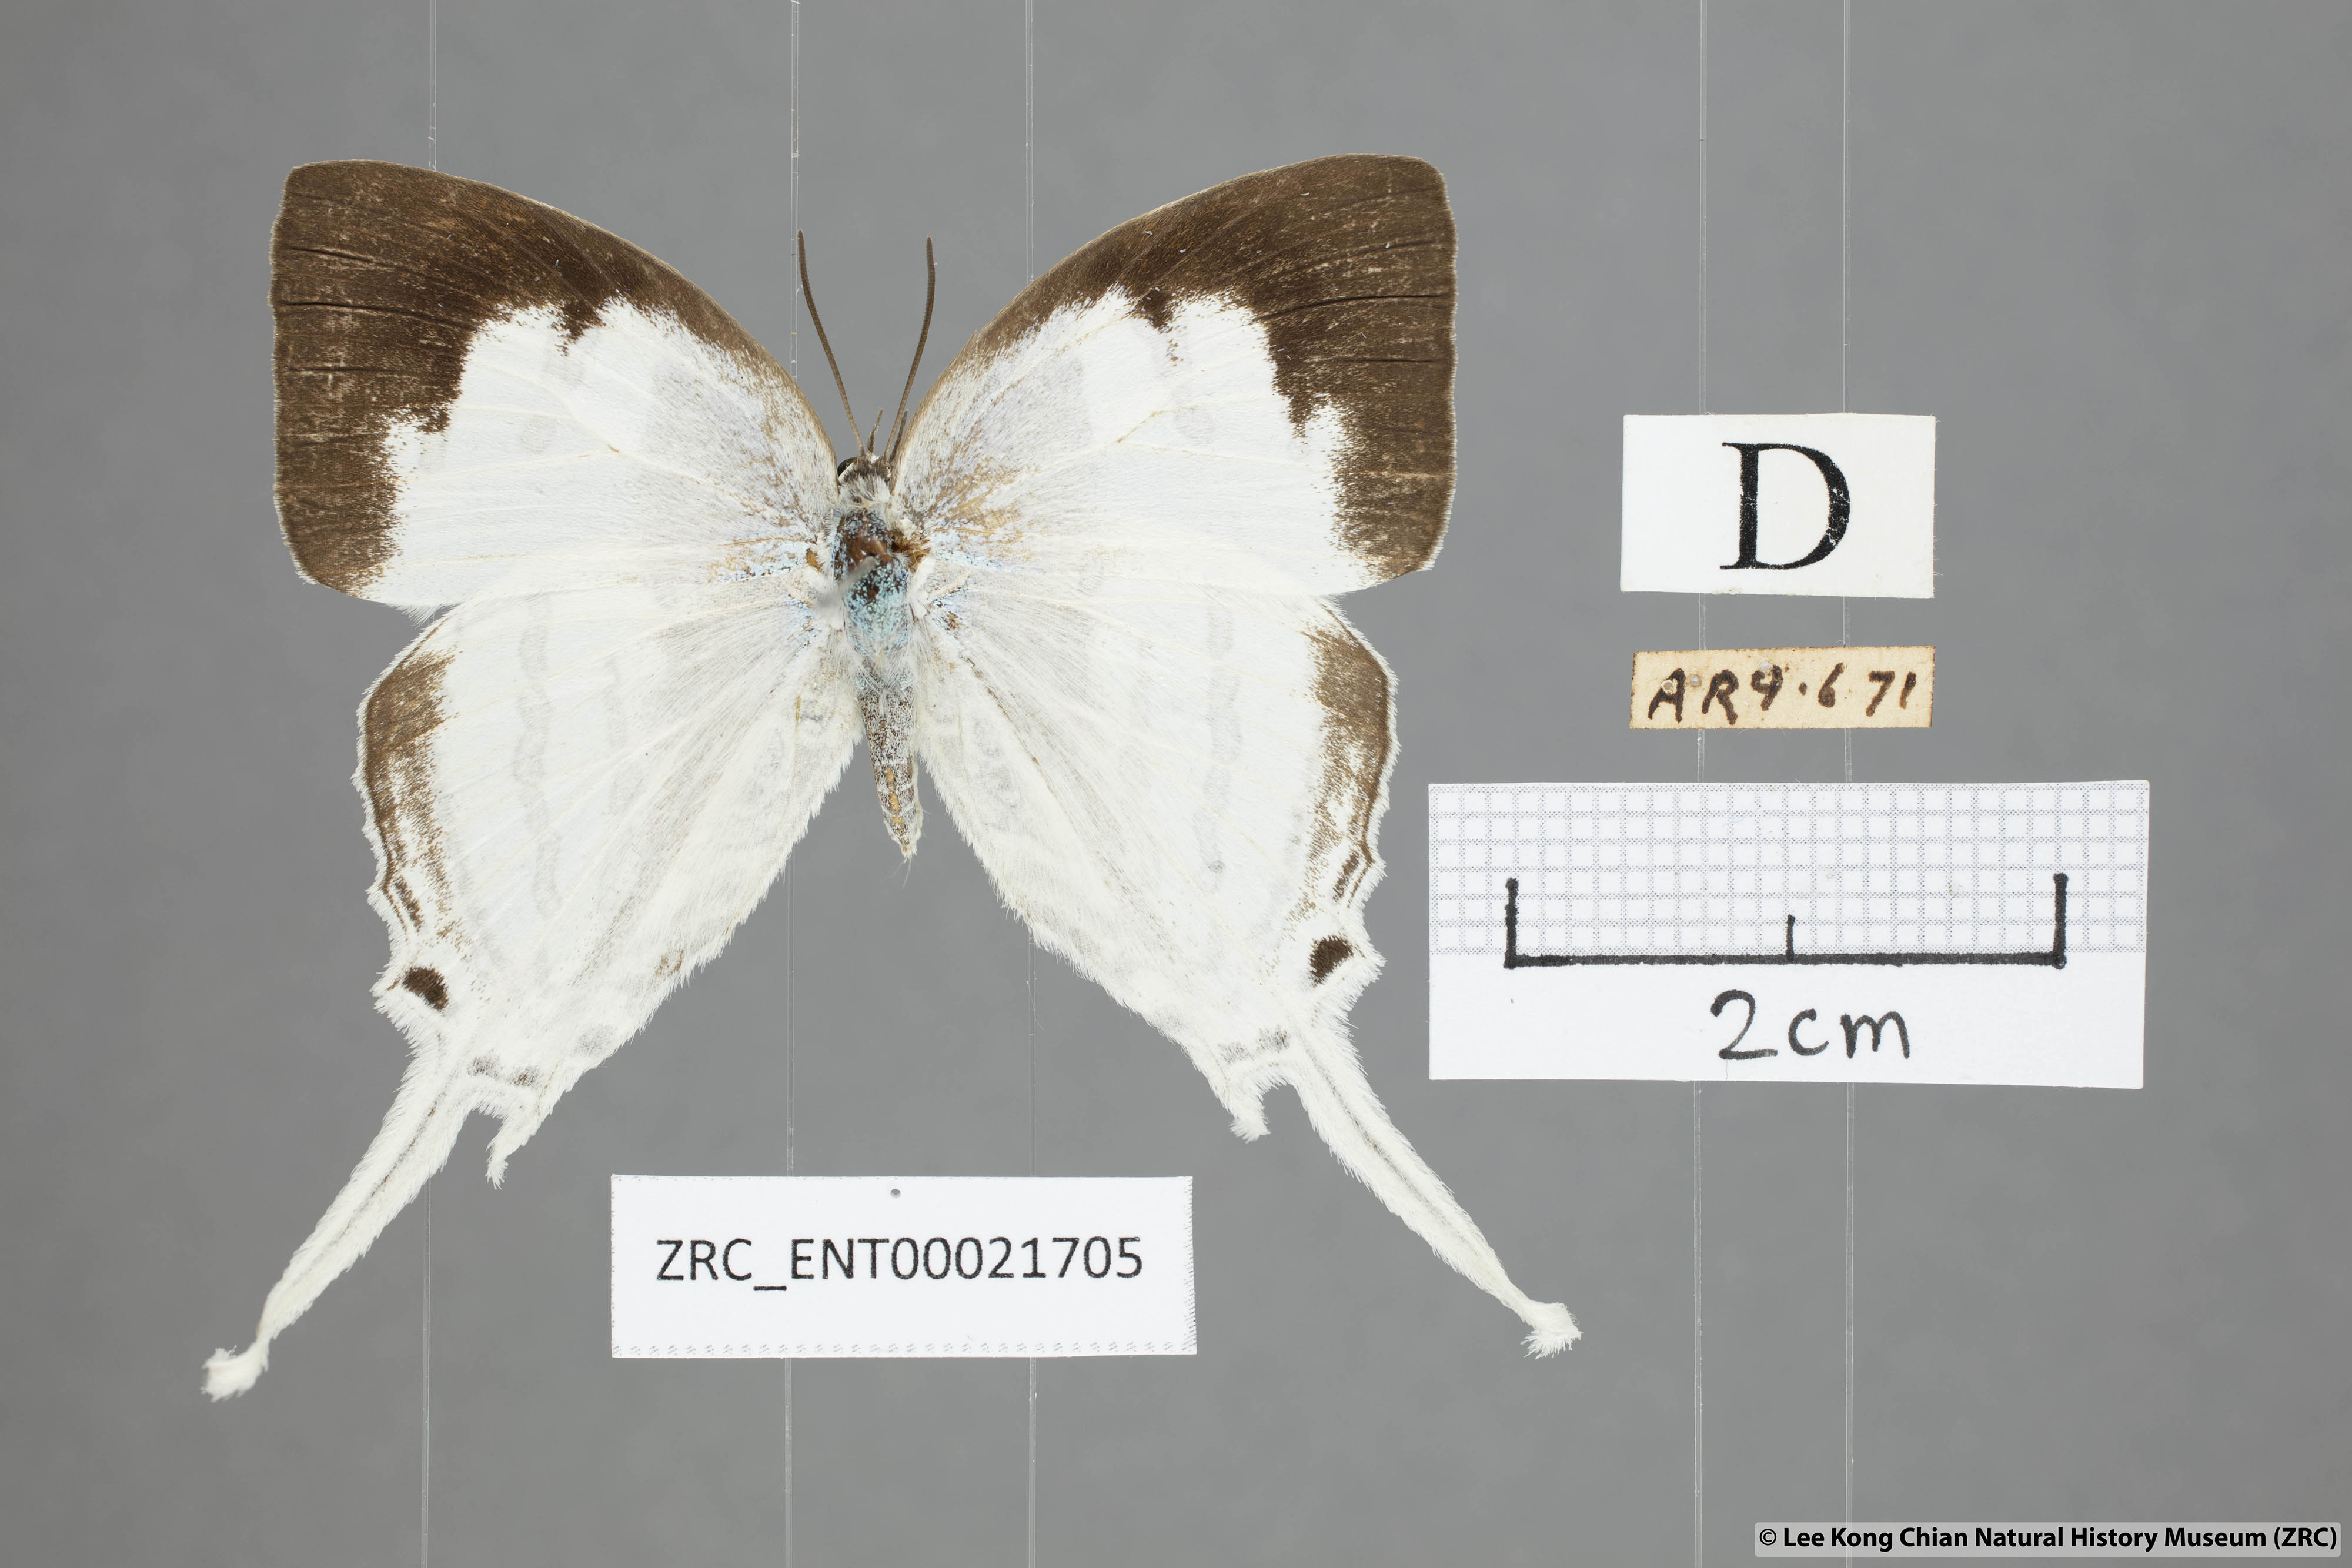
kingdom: Animalia
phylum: Arthropoda
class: Insecta
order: Lepidoptera
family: Lycaenidae
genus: Neomyrina
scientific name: Neomyrina nivea
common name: White imperial butterfly
